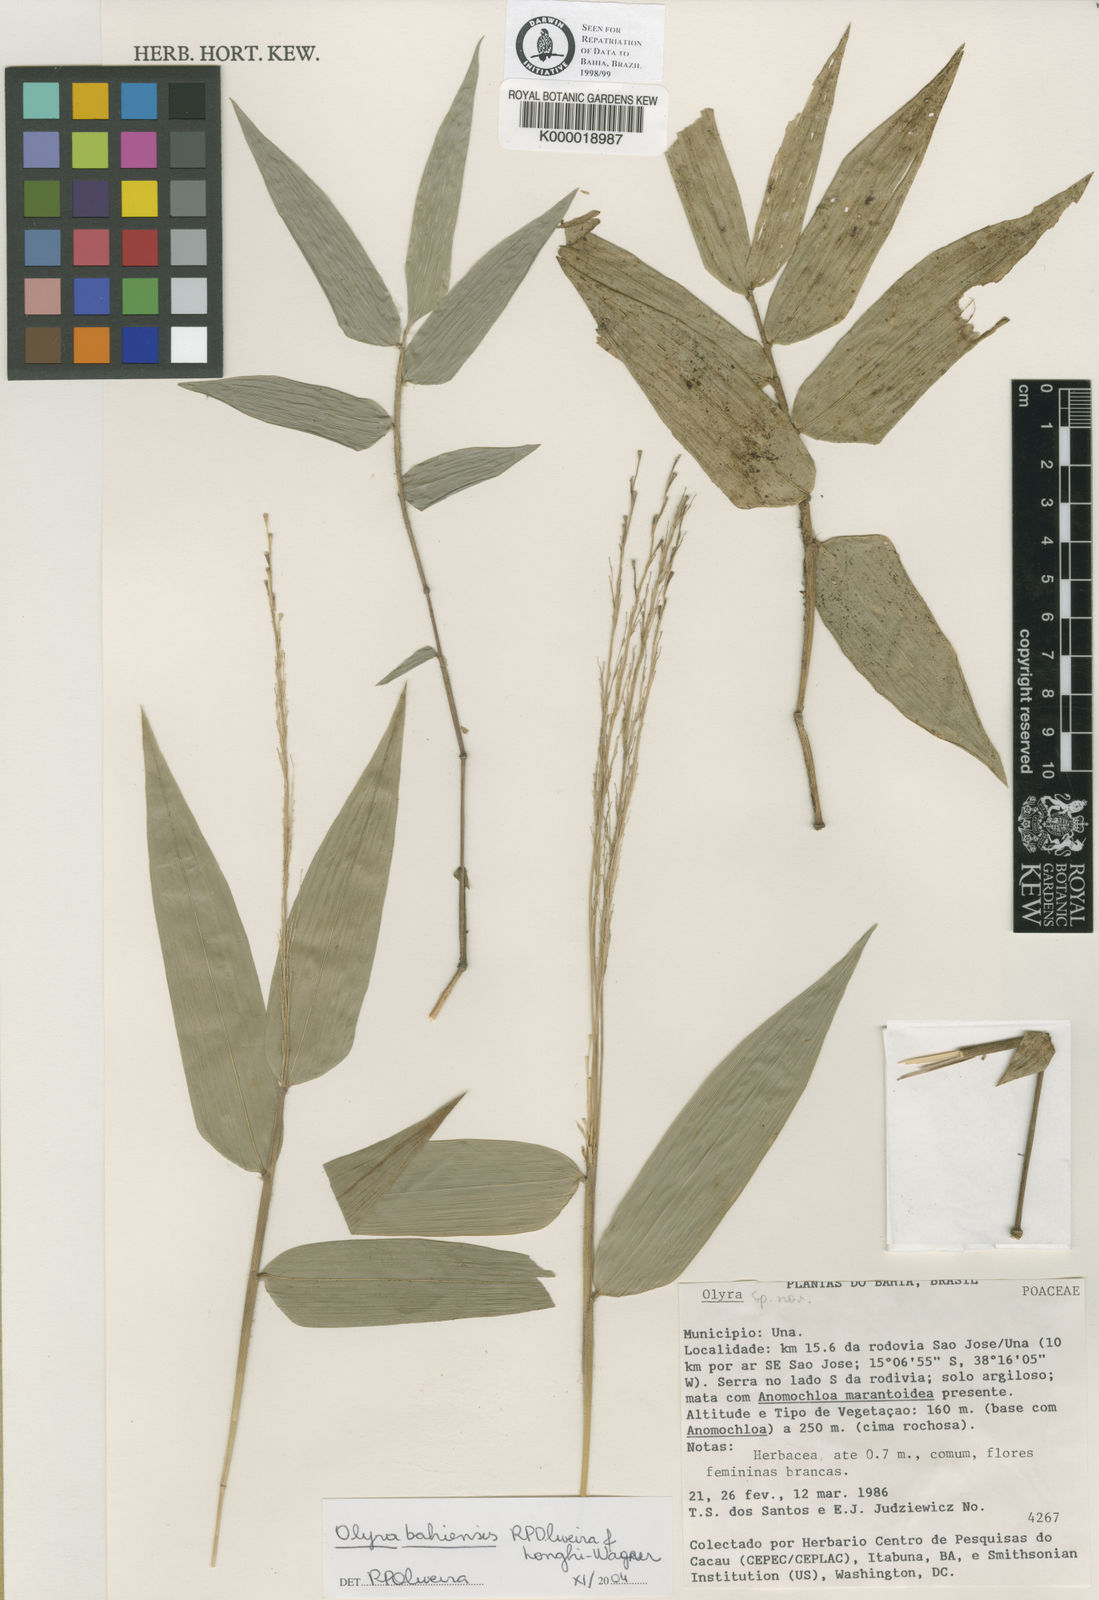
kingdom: Plantae
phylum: Tracheophyta
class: Liliopsida
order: Poales
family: Poaceae
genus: Olyra
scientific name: Olyra bahiensis
